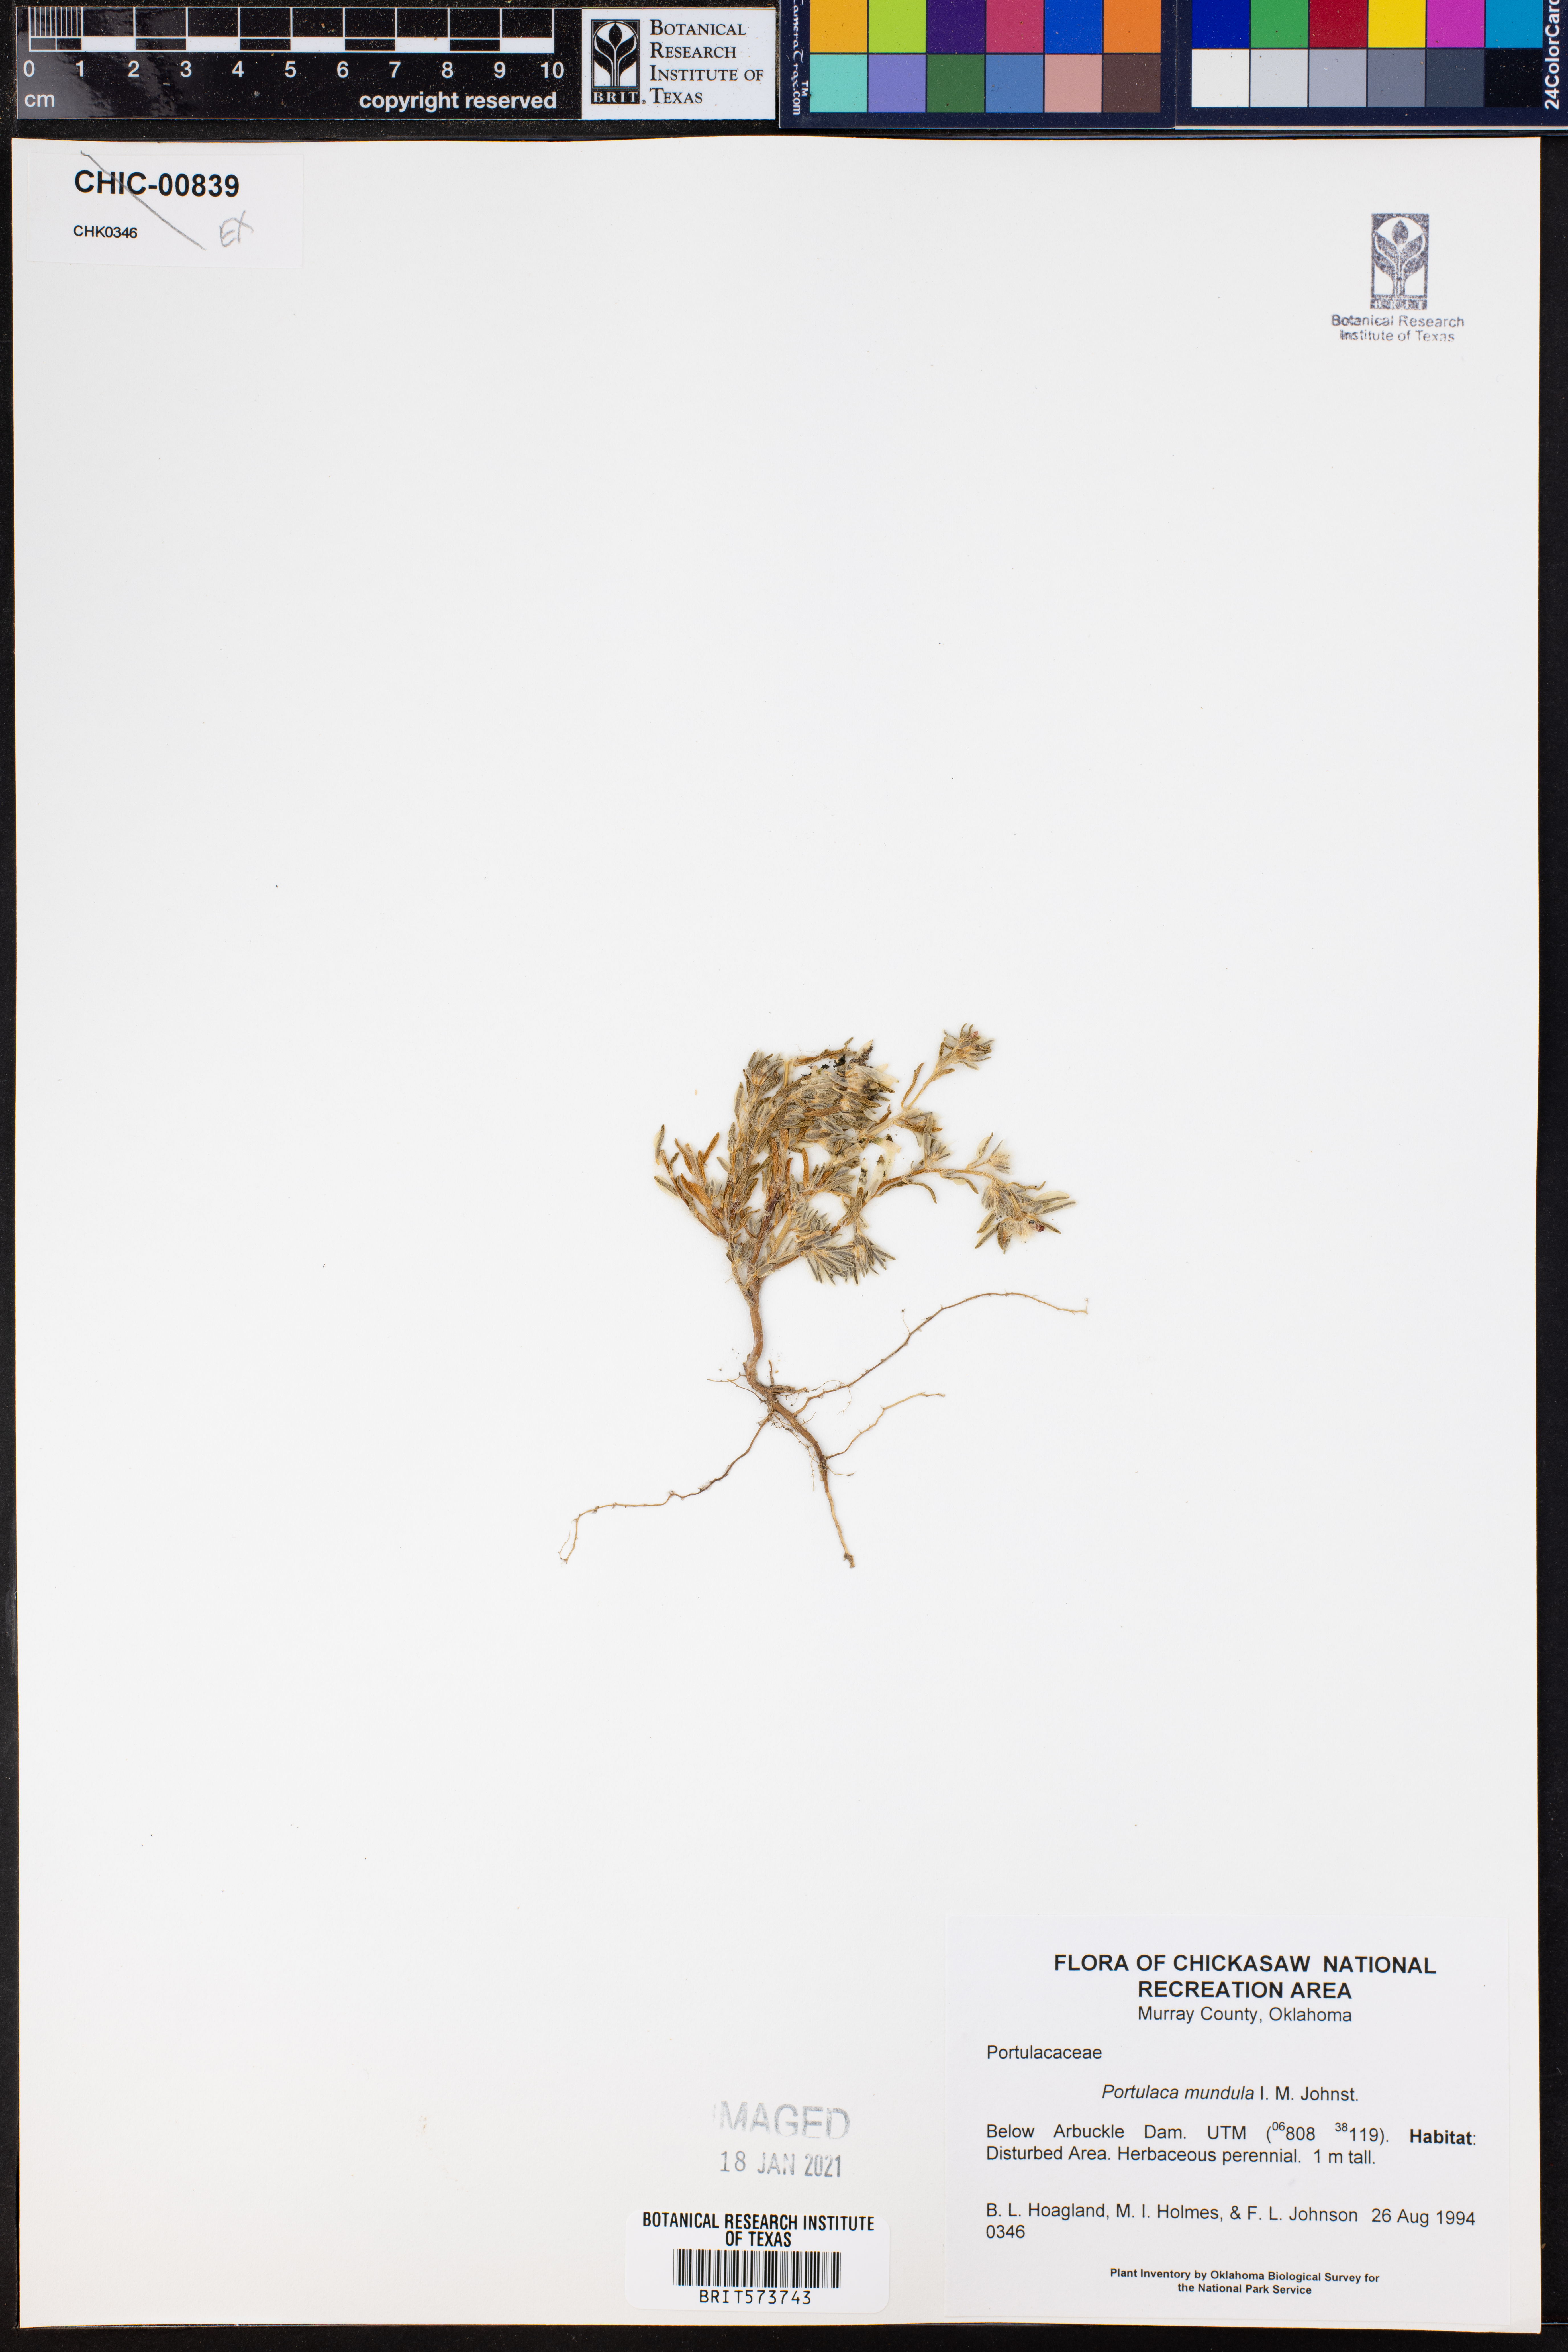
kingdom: Plantae
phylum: Tracheophyta
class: Magnoliopsida
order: Caryophyllales
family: Portulacaceae
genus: Portulaca
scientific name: Portulaca pilosa
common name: Kiss me quick
